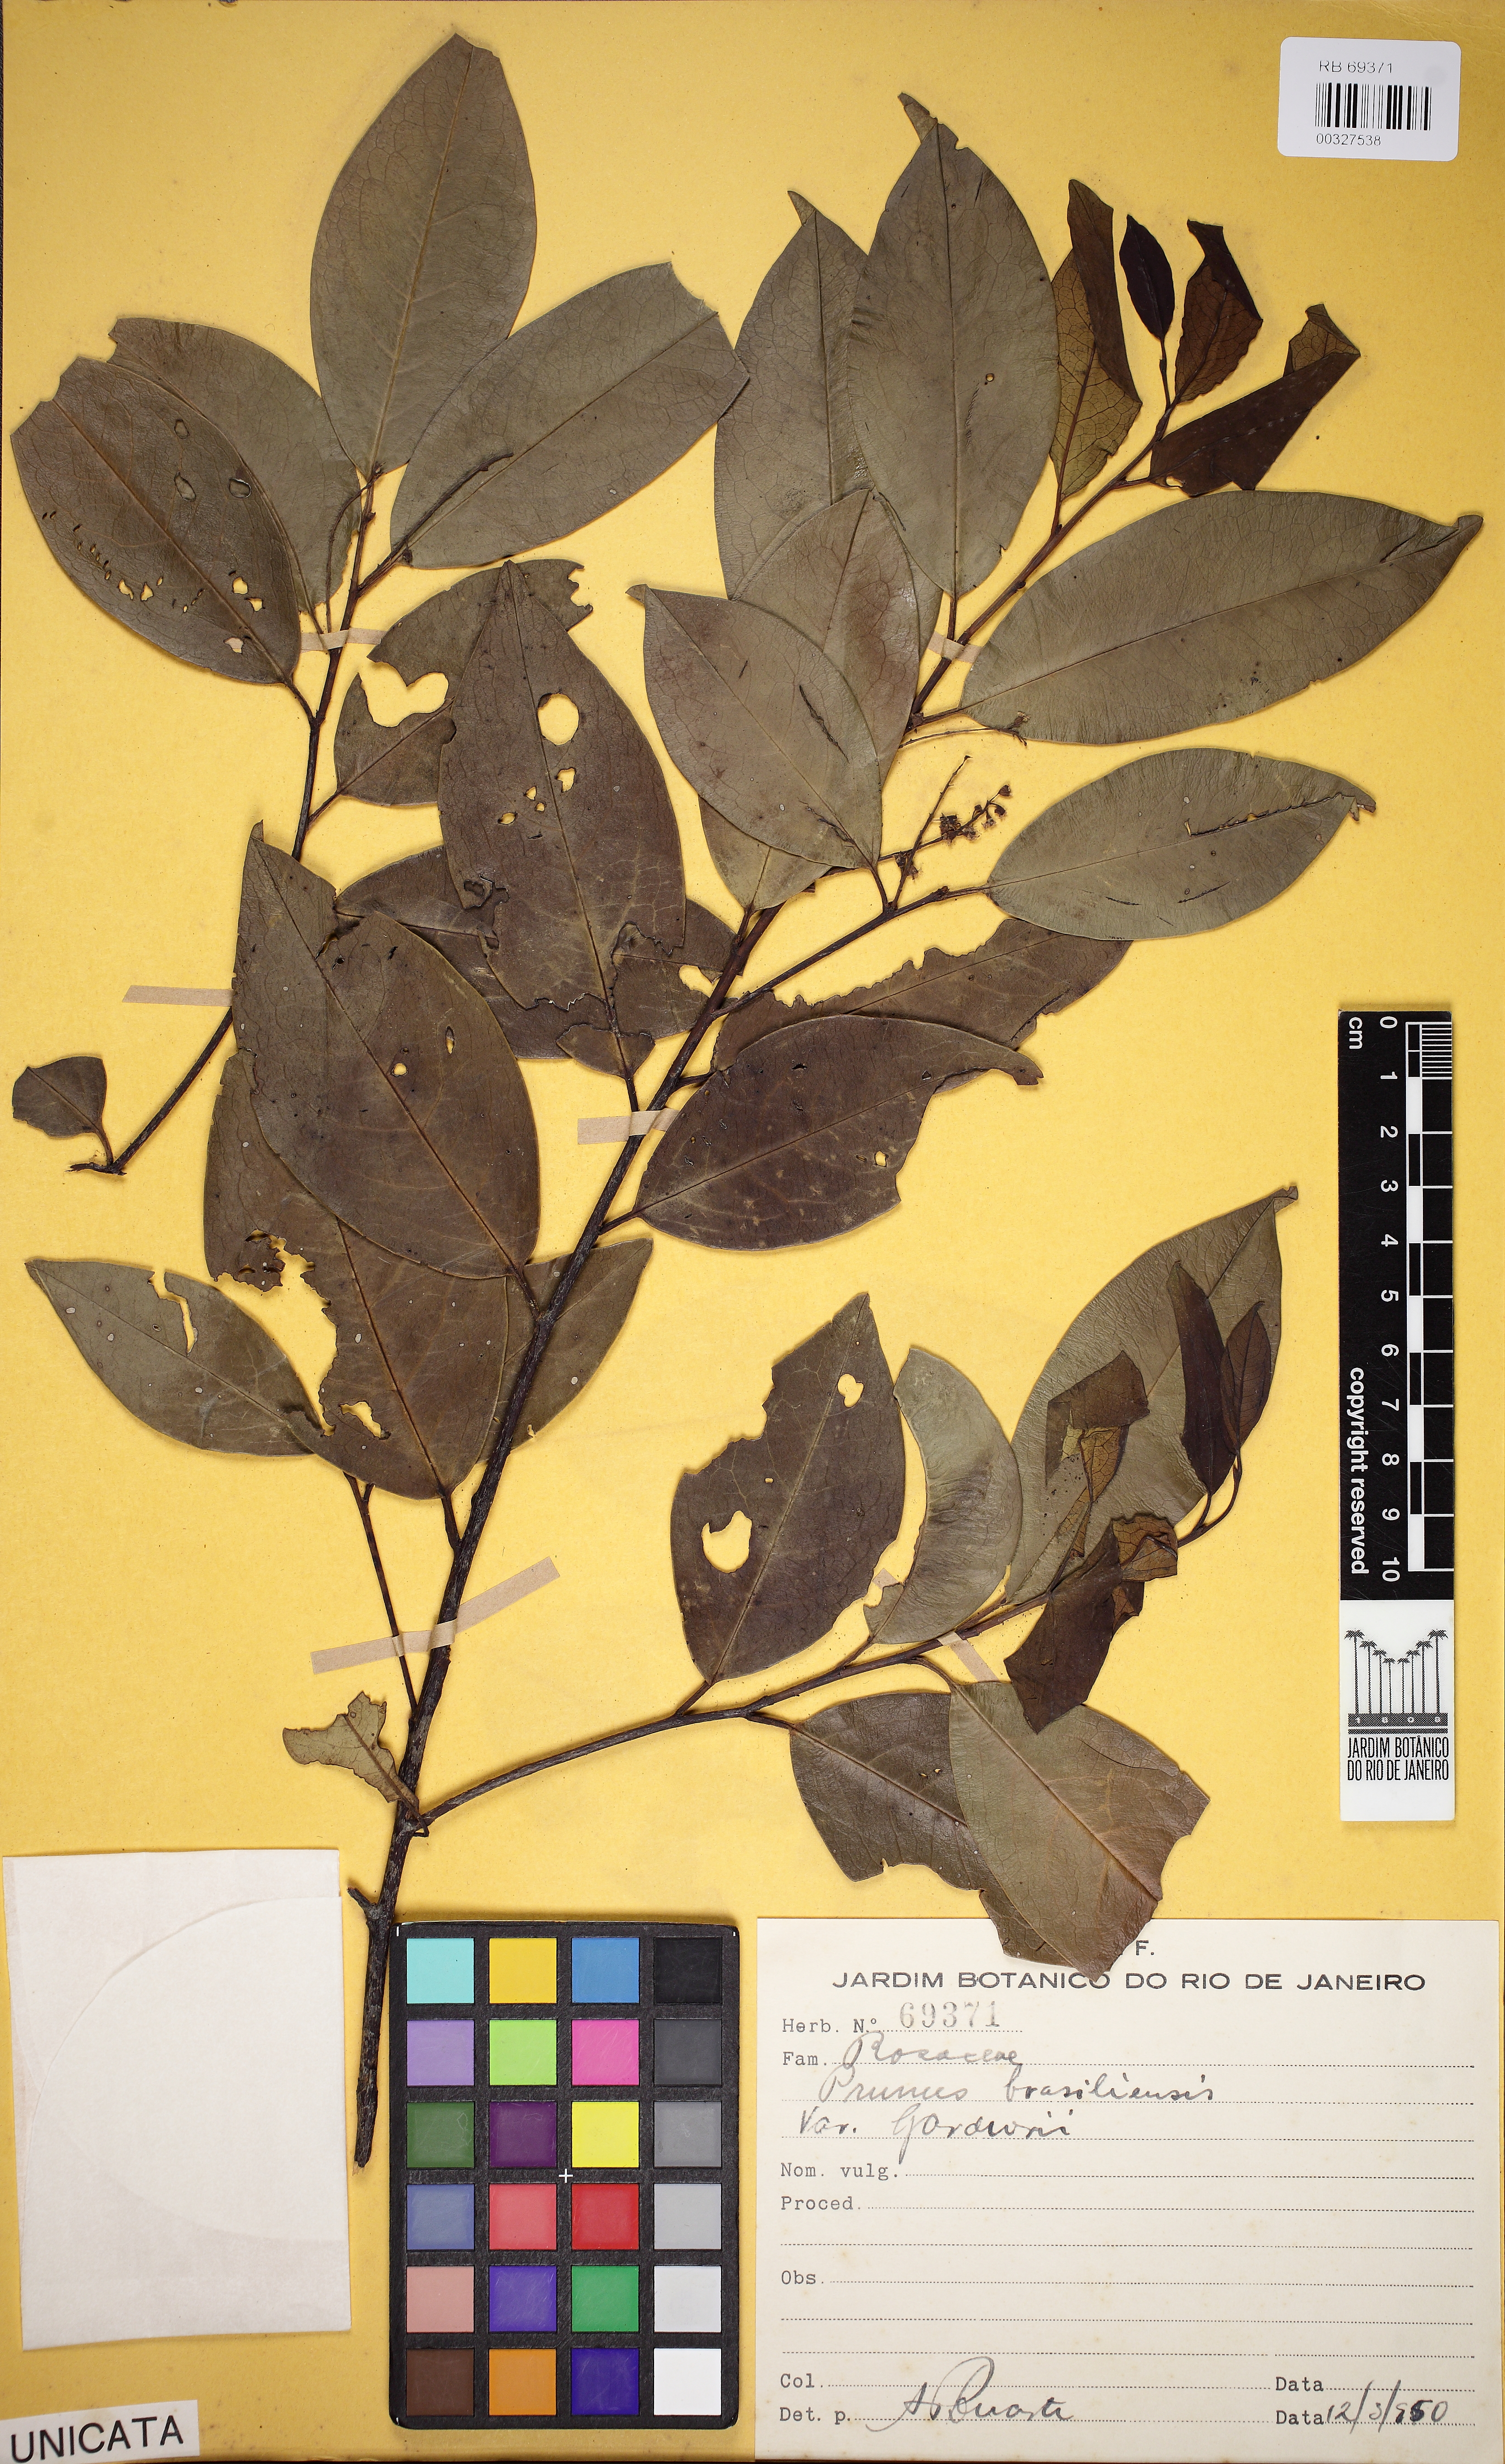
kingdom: Plantae
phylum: Tracheophyta
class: Magnoliopsida
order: Rosales
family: Rosaceae
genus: Prunus
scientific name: Prunus brasiliensis
